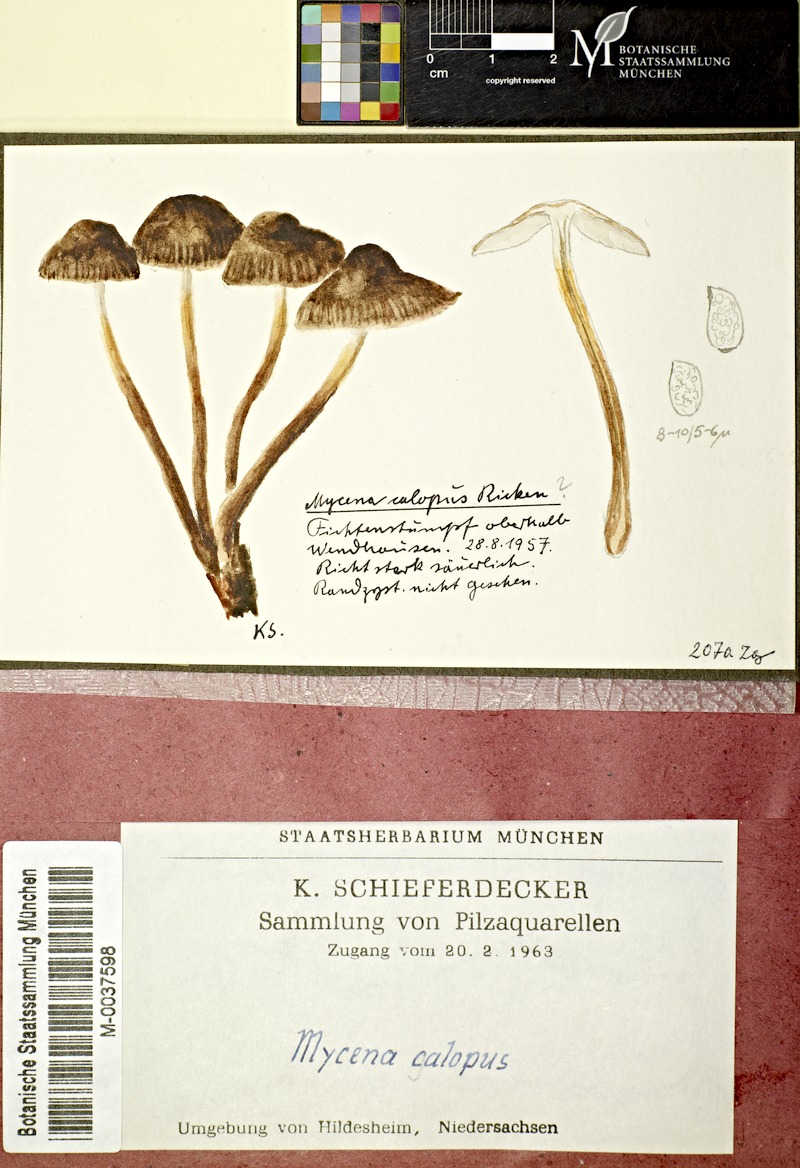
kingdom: Fungi
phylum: Basidiomycota
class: Agaricomycetes
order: Agaricales
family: Mycenaceae
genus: Mycena
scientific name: Mycena inclinata
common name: Clustered bonnet
